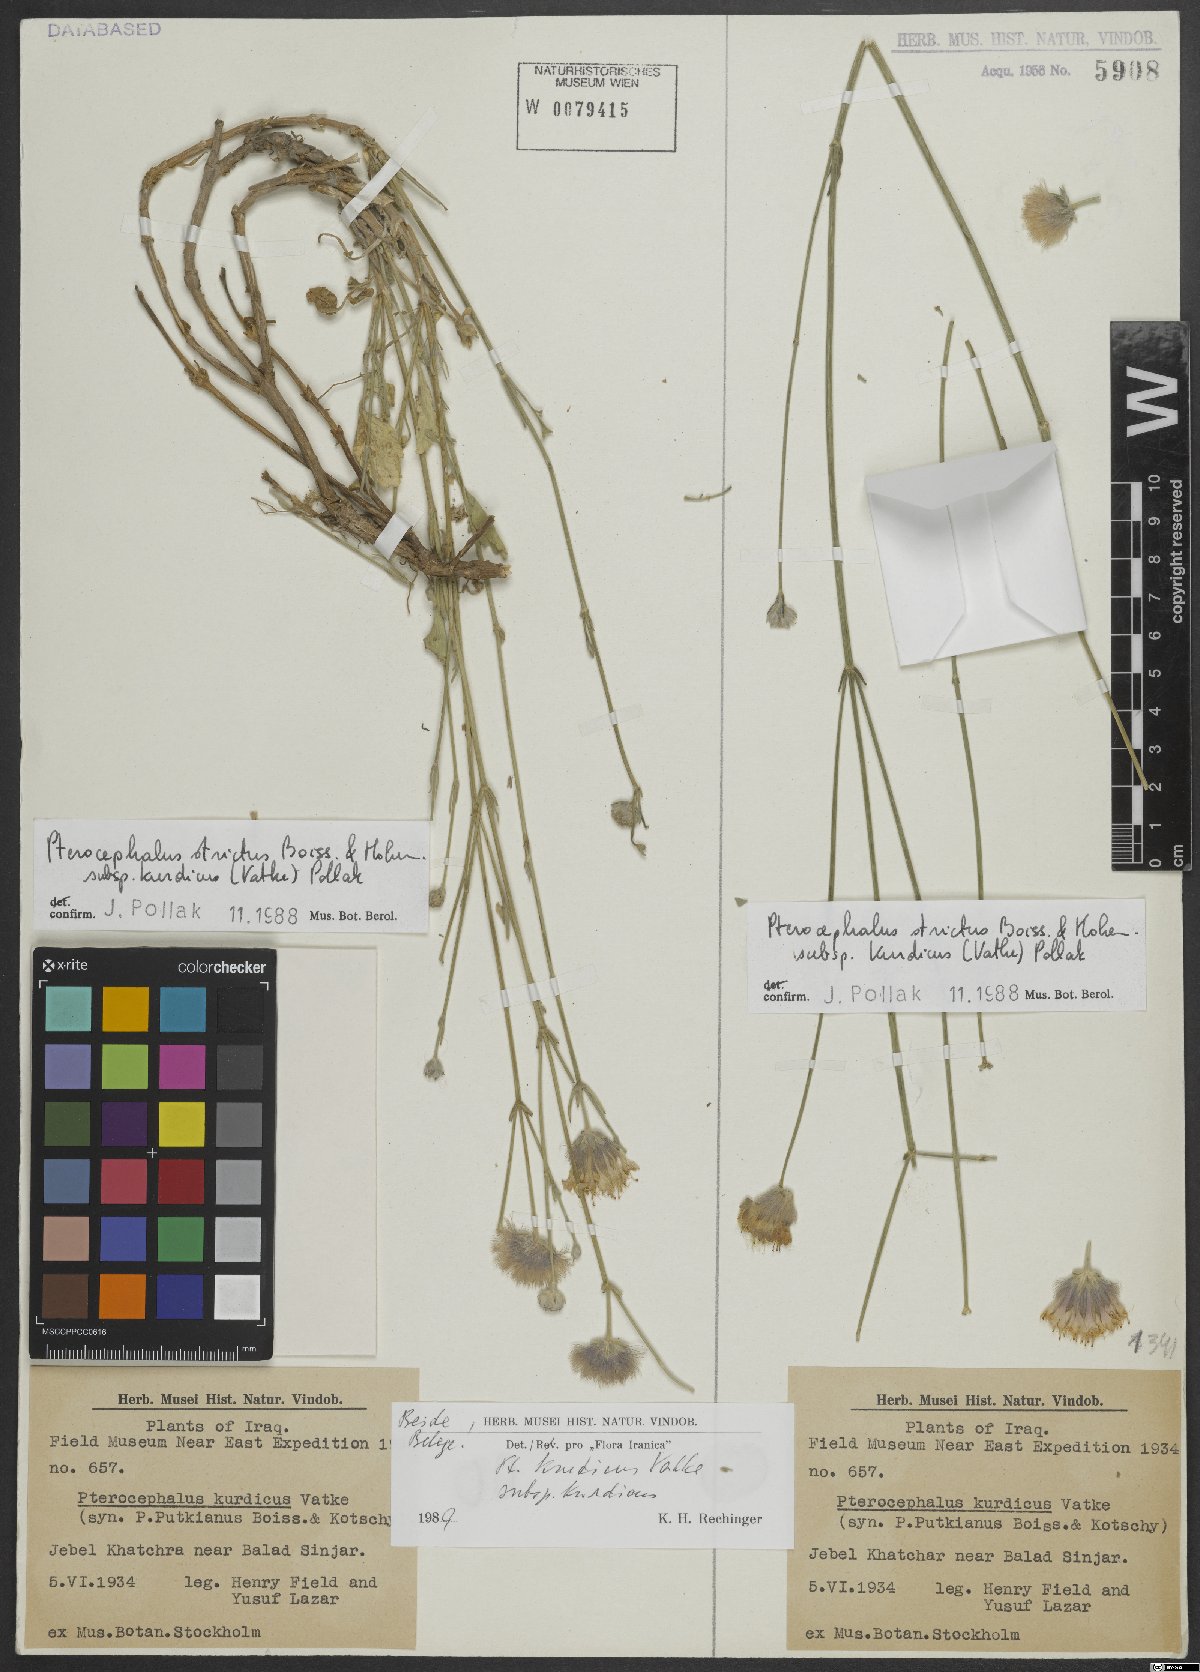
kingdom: Plantae
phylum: Tracheophyta
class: Magnoliopsida
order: Dipsacales
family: Caprifoliaceae
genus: Pterocephalus
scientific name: Pterocephalus kurdicus
